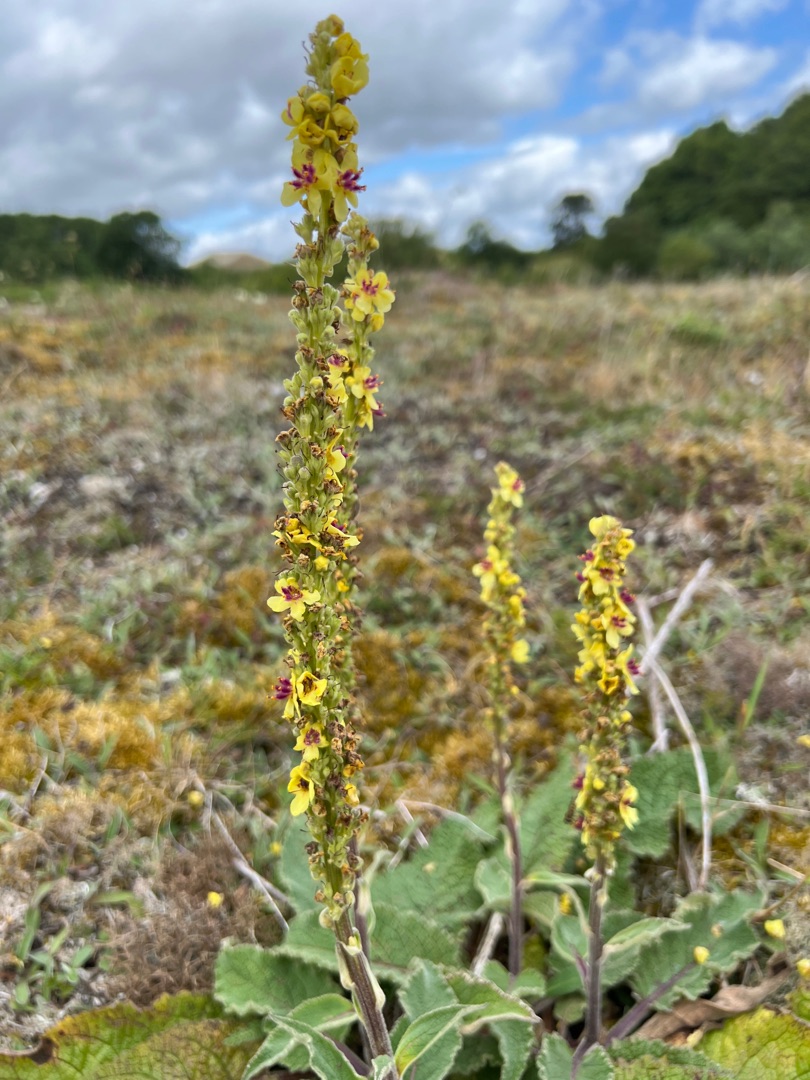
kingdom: Plantae
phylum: Tracheophyta
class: Magnoliopsida
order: Lamiales
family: Scrophulariaceae
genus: Verbascum
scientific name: Verbascum nigrum
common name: Mørk kongelys
